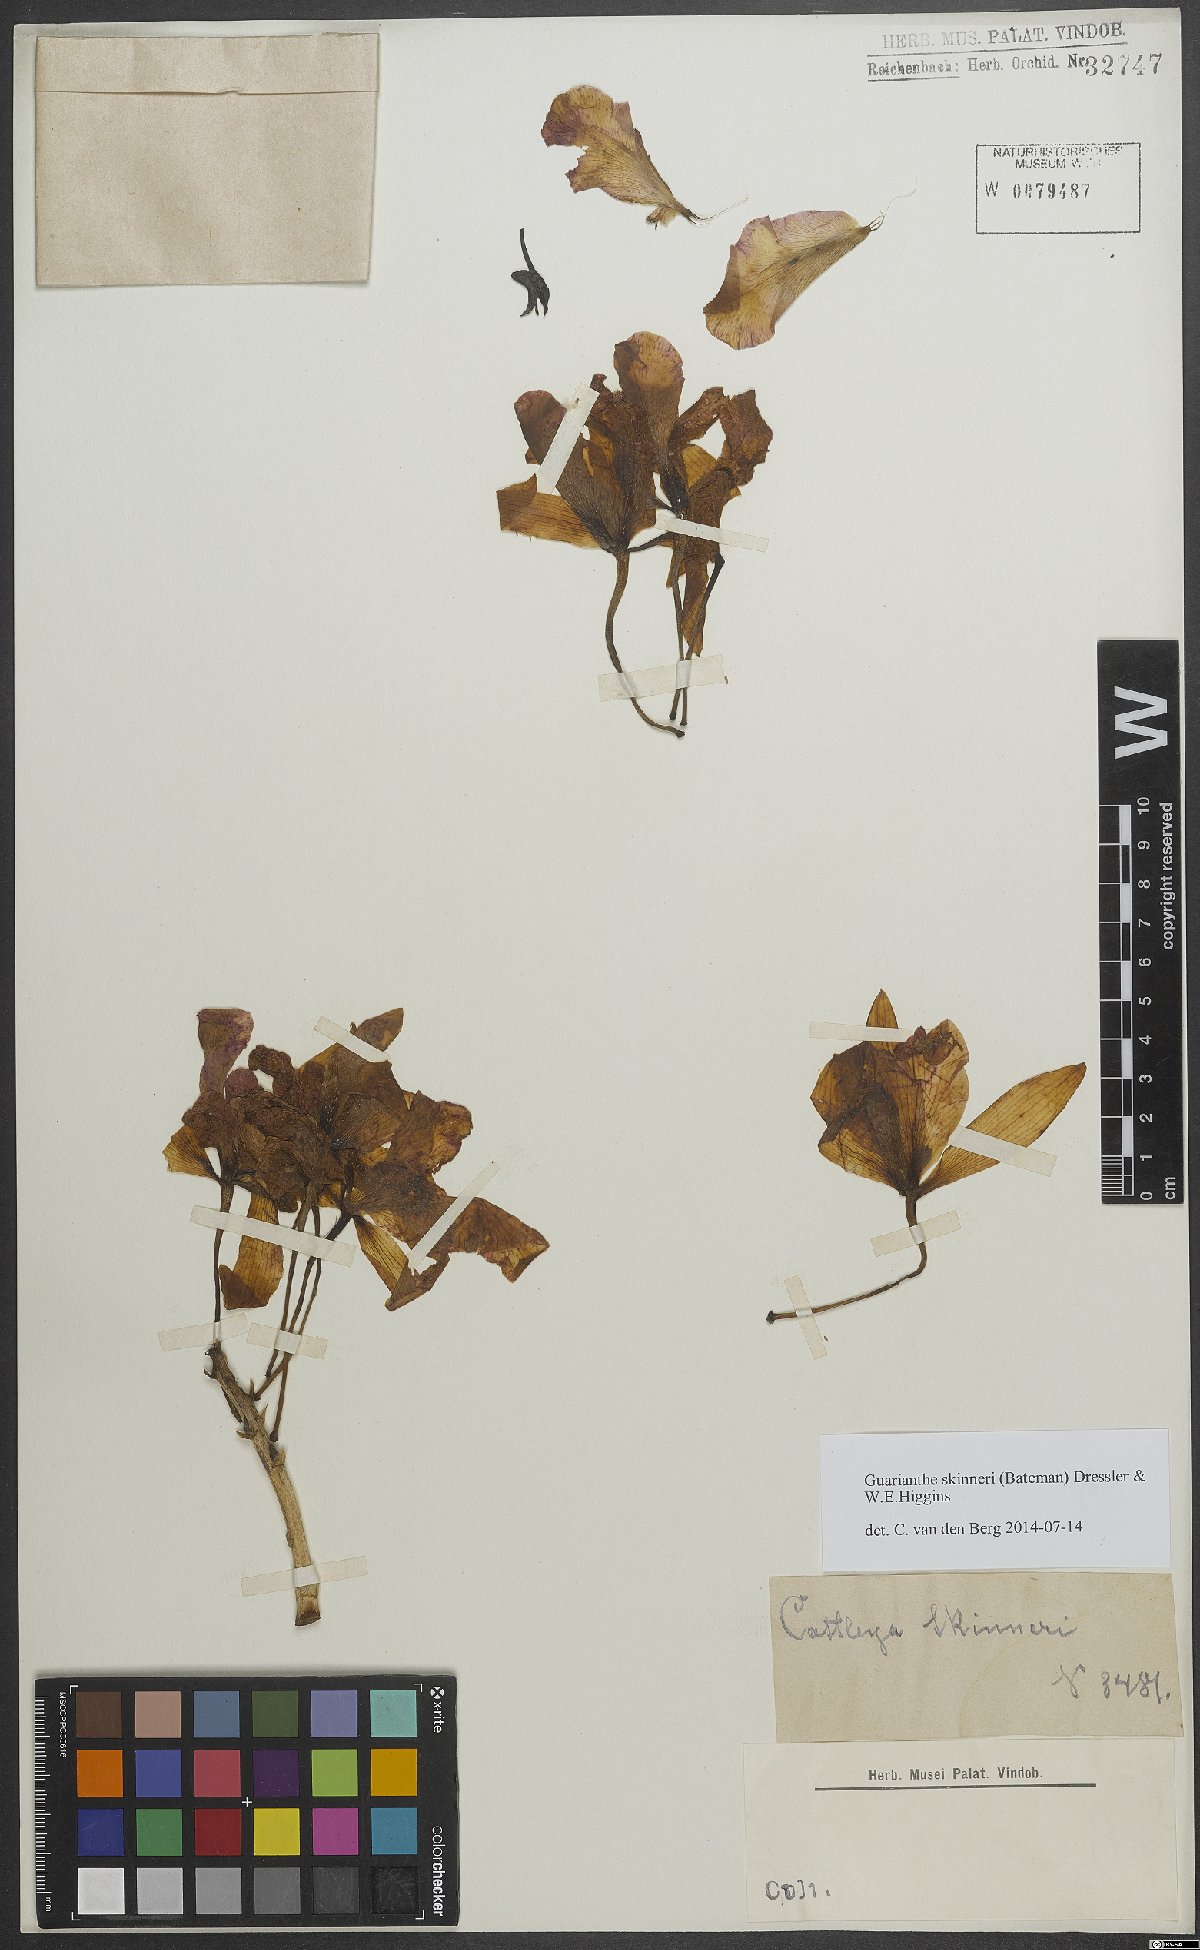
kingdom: Plantae
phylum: Tracheophyta
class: Liliopsida
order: Asparagales
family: Orchidaceae
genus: Guarianthe
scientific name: Guarianthe skinneri
